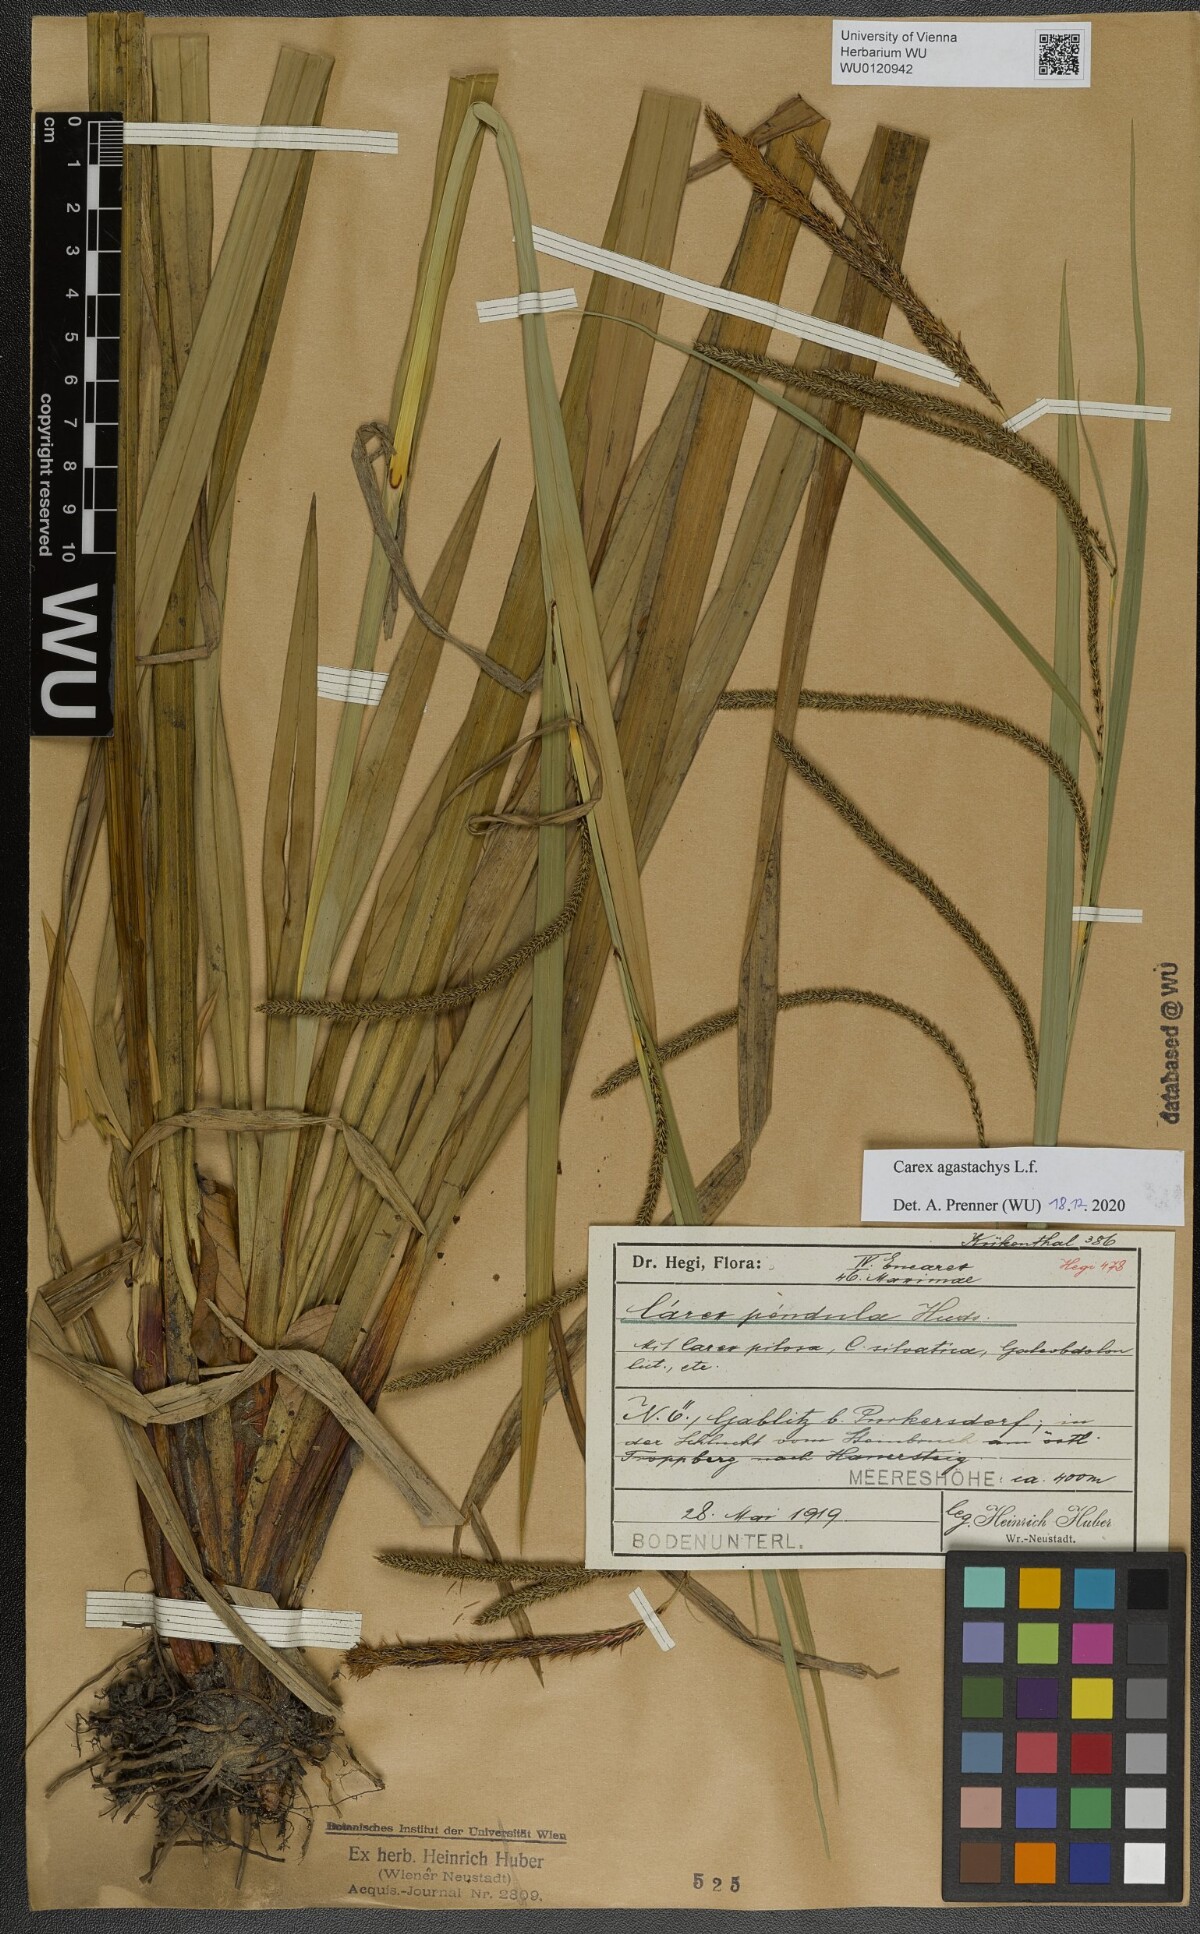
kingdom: Plantae
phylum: Tracheophyta
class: Liliopsida
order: Poales
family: Cyperaceae
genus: Carex
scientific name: Carex agastachys
